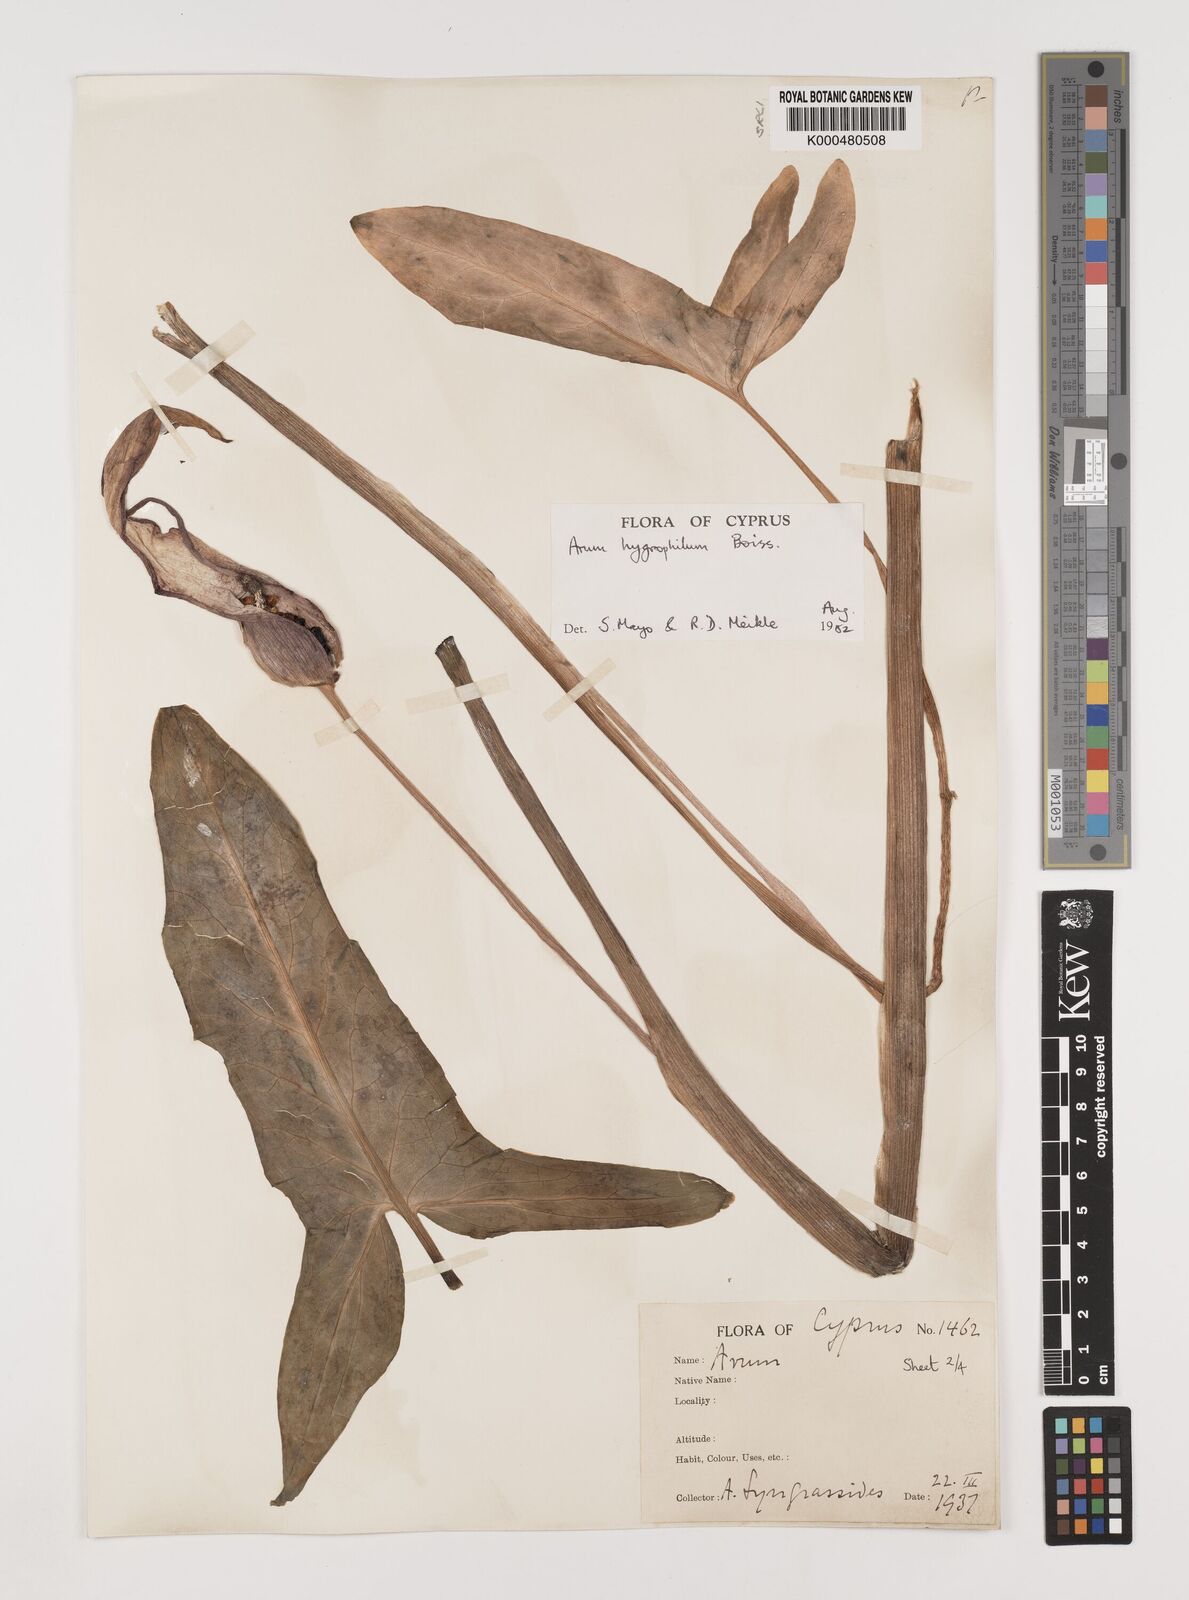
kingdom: Plantae
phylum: Tracheophyta
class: Liliopsida
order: Alismatales
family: Araceae
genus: Arum
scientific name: Arum hygrophilum
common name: Water arum
